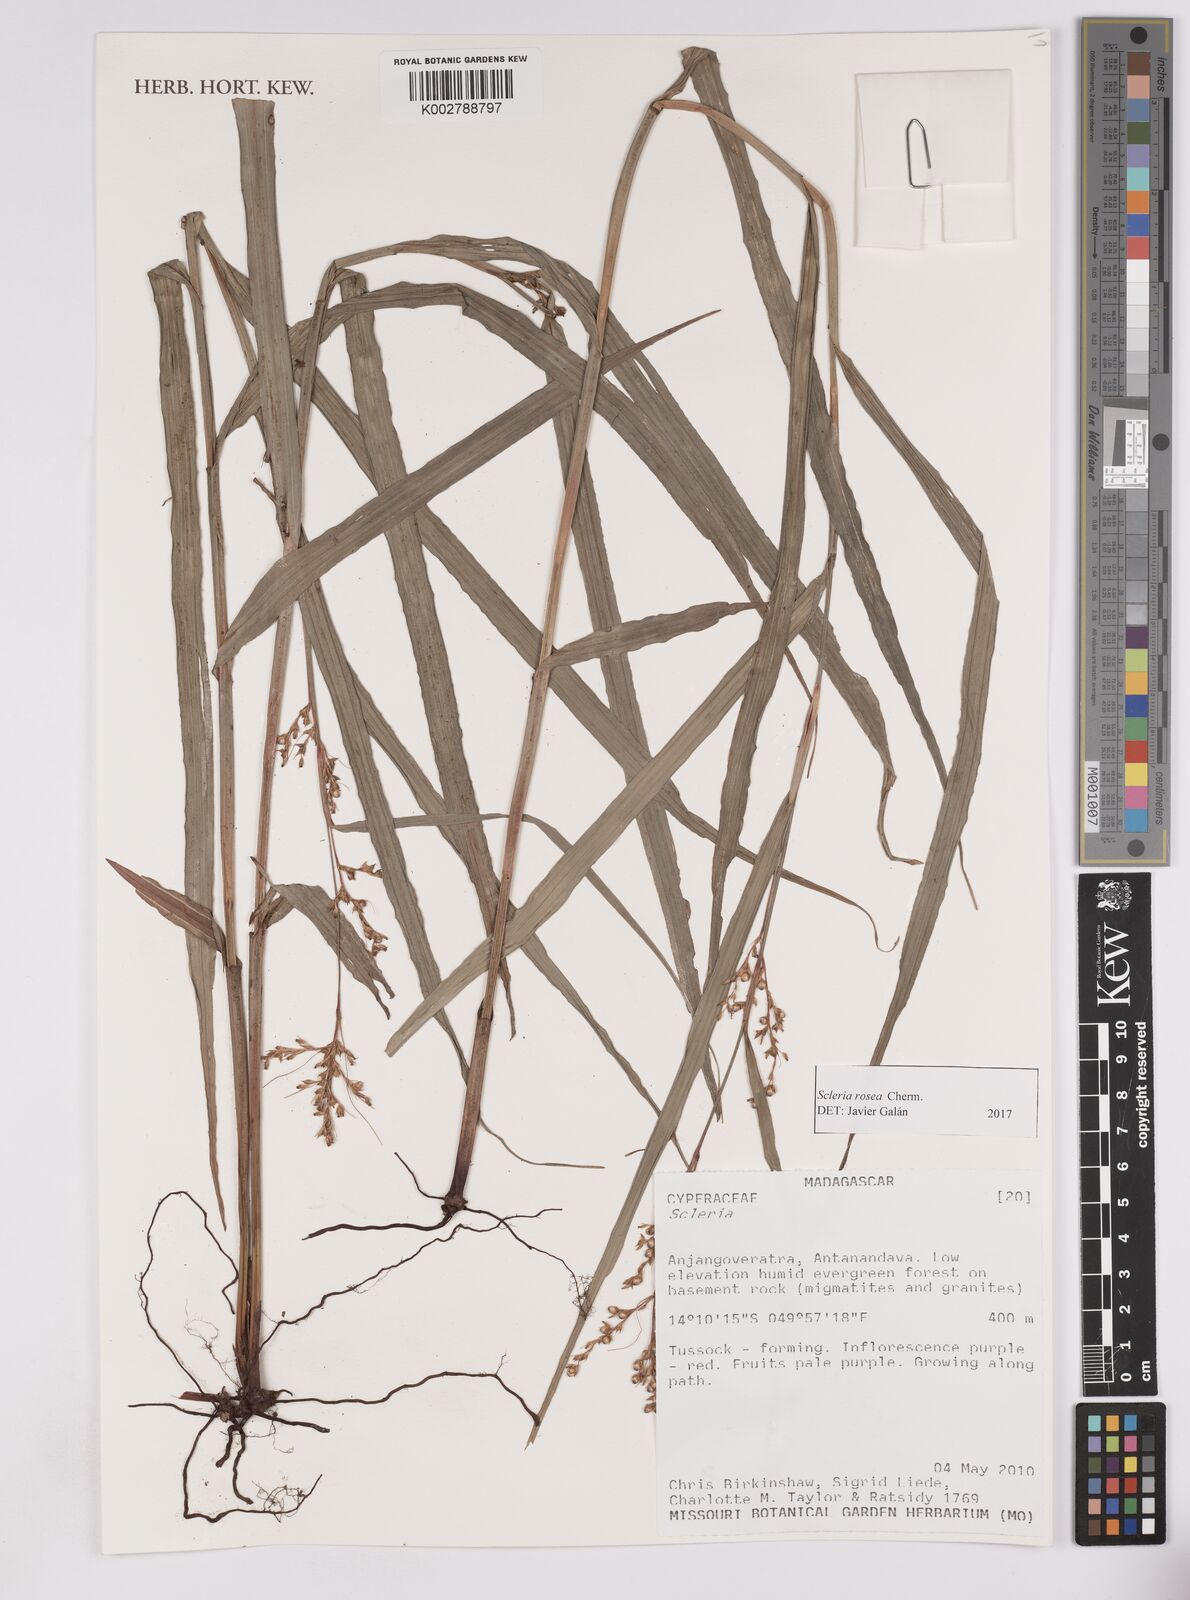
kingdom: Plantae
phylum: Tracheophyta
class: Liliopsida
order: Poales
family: Cyperaceae
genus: Scleria
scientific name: Scleria trialata
